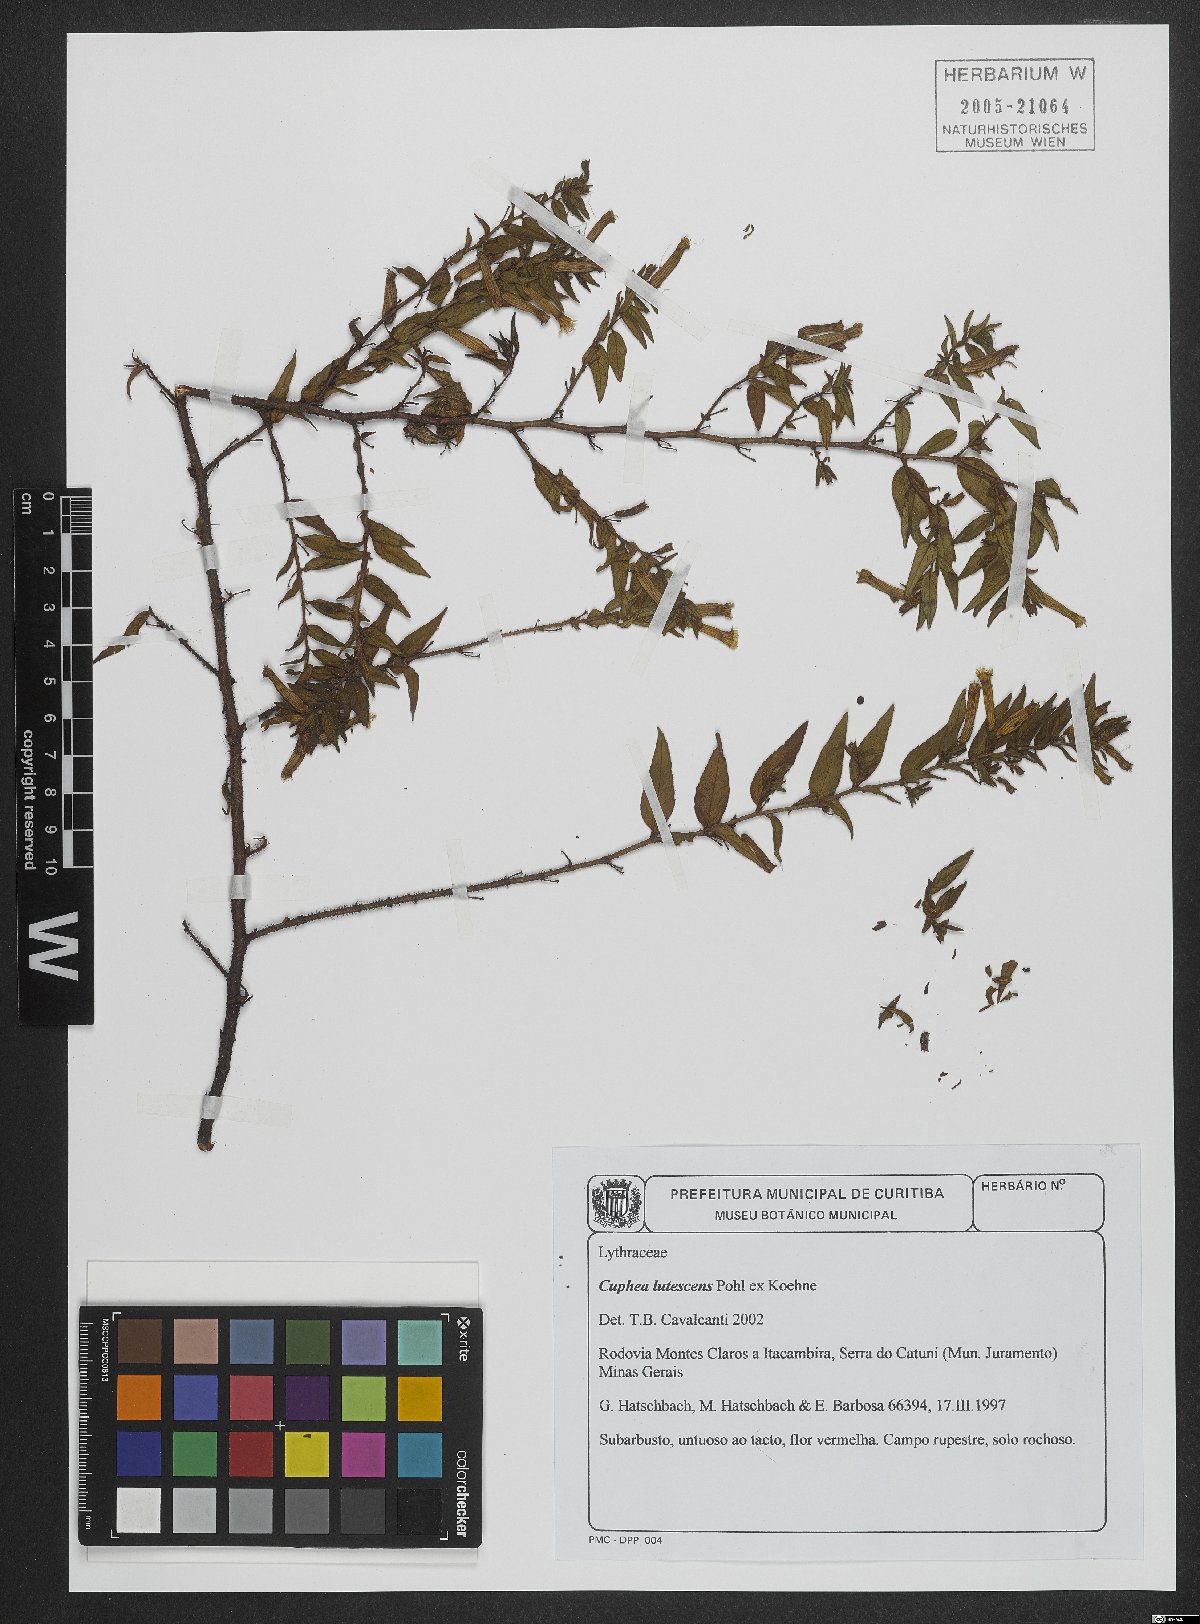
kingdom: Plantae
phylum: Tracheophyta
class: Magnoliopsida
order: Myrtales
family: Lythraceae
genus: Cuphea
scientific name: Cuphea lutescens
